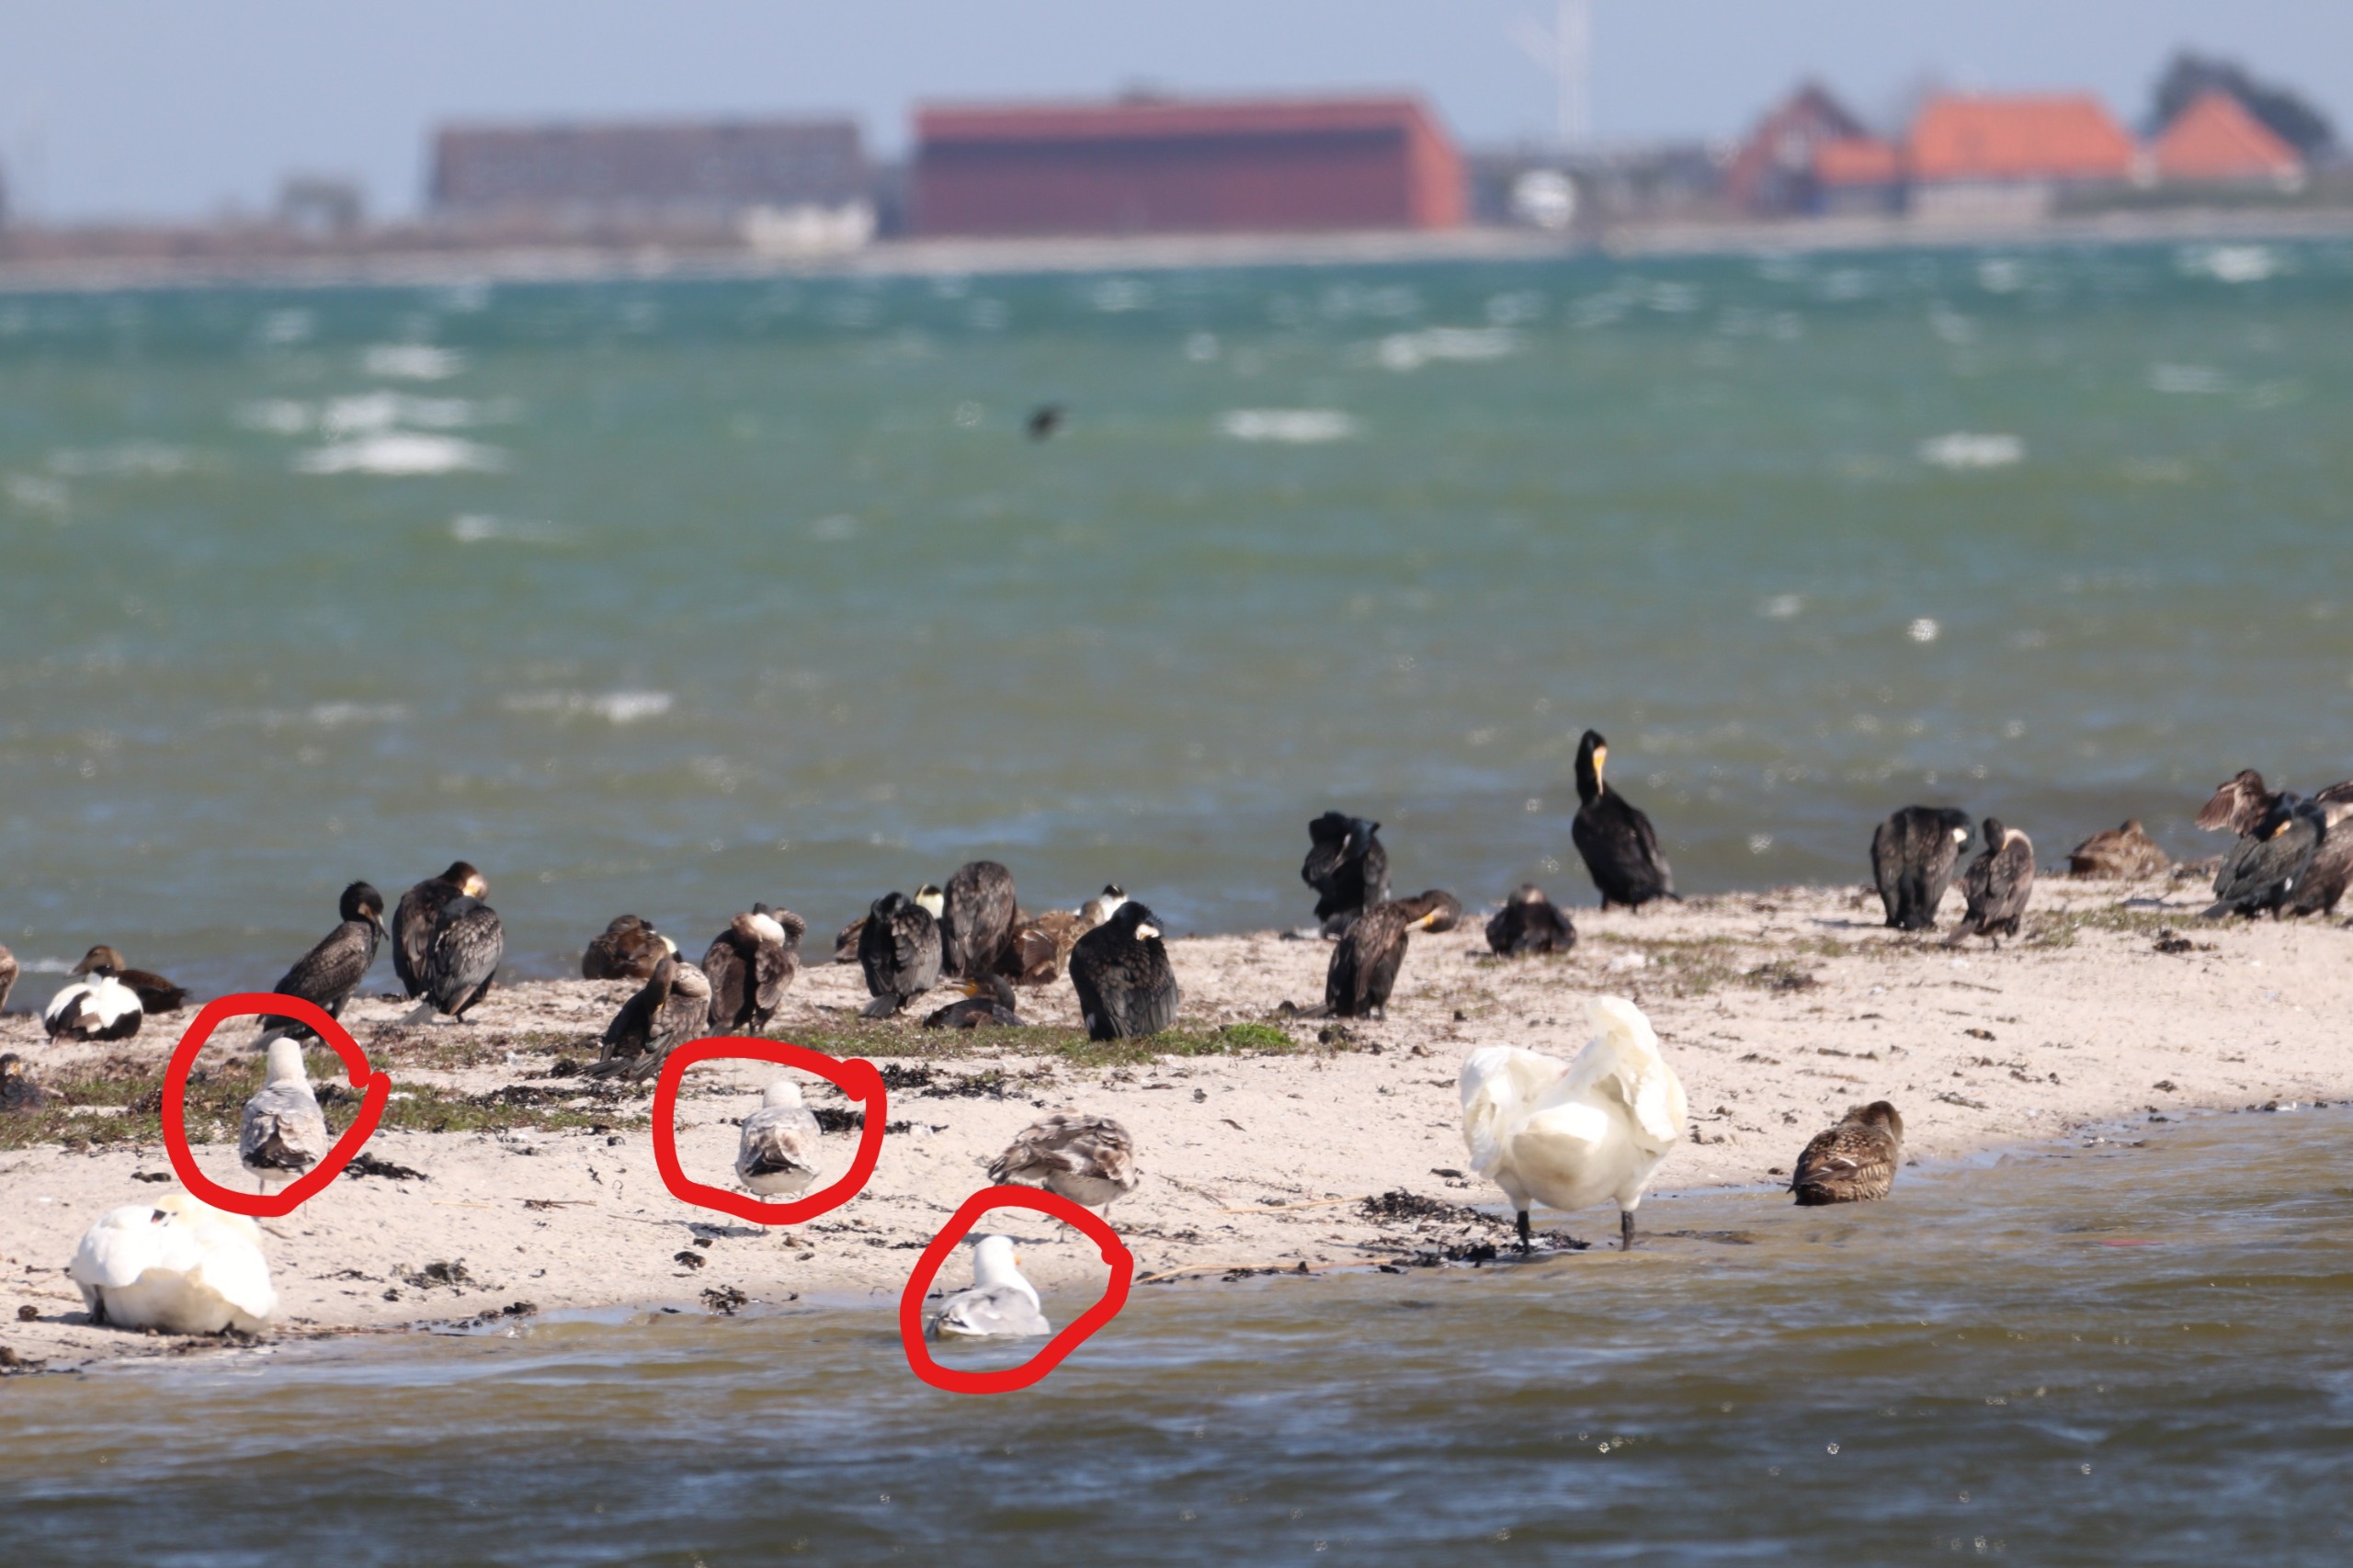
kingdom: Animalia
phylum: Chordata
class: Aves
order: Charadriiformes
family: Laridae
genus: Larus
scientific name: Larus argentatus
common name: Sølvmåge
